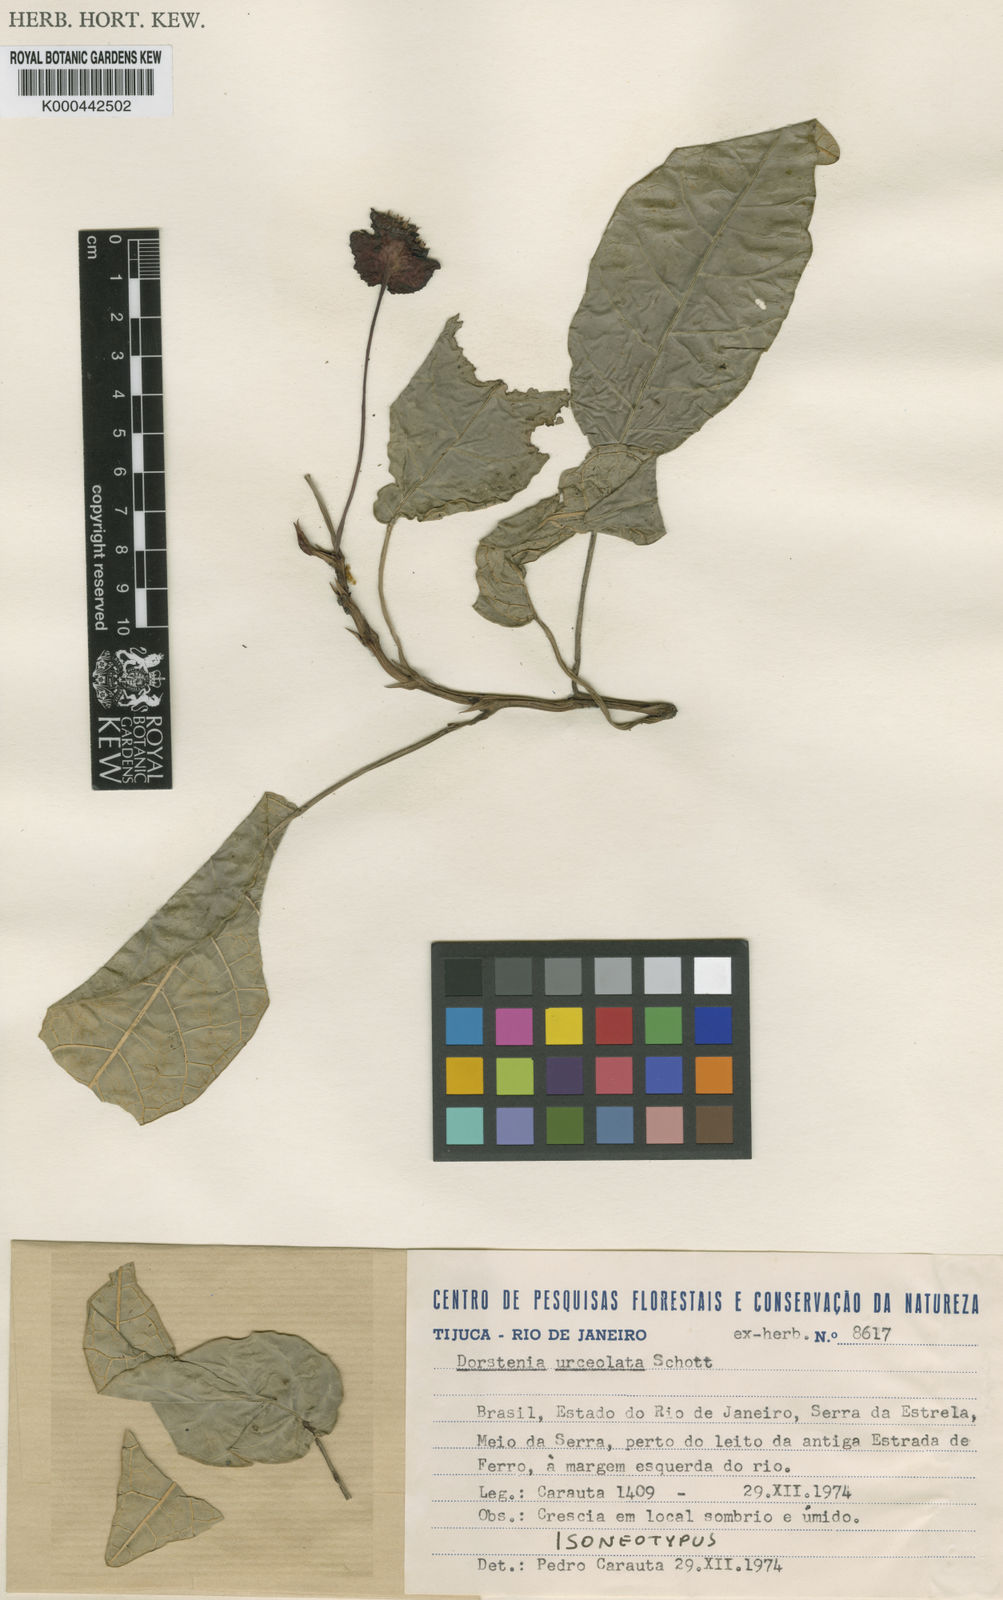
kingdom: Plantae
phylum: Tracheophyta
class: Magnoliopsida
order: Rosales
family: Moraceae
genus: Dorstenia
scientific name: Dorstenia urceolata
